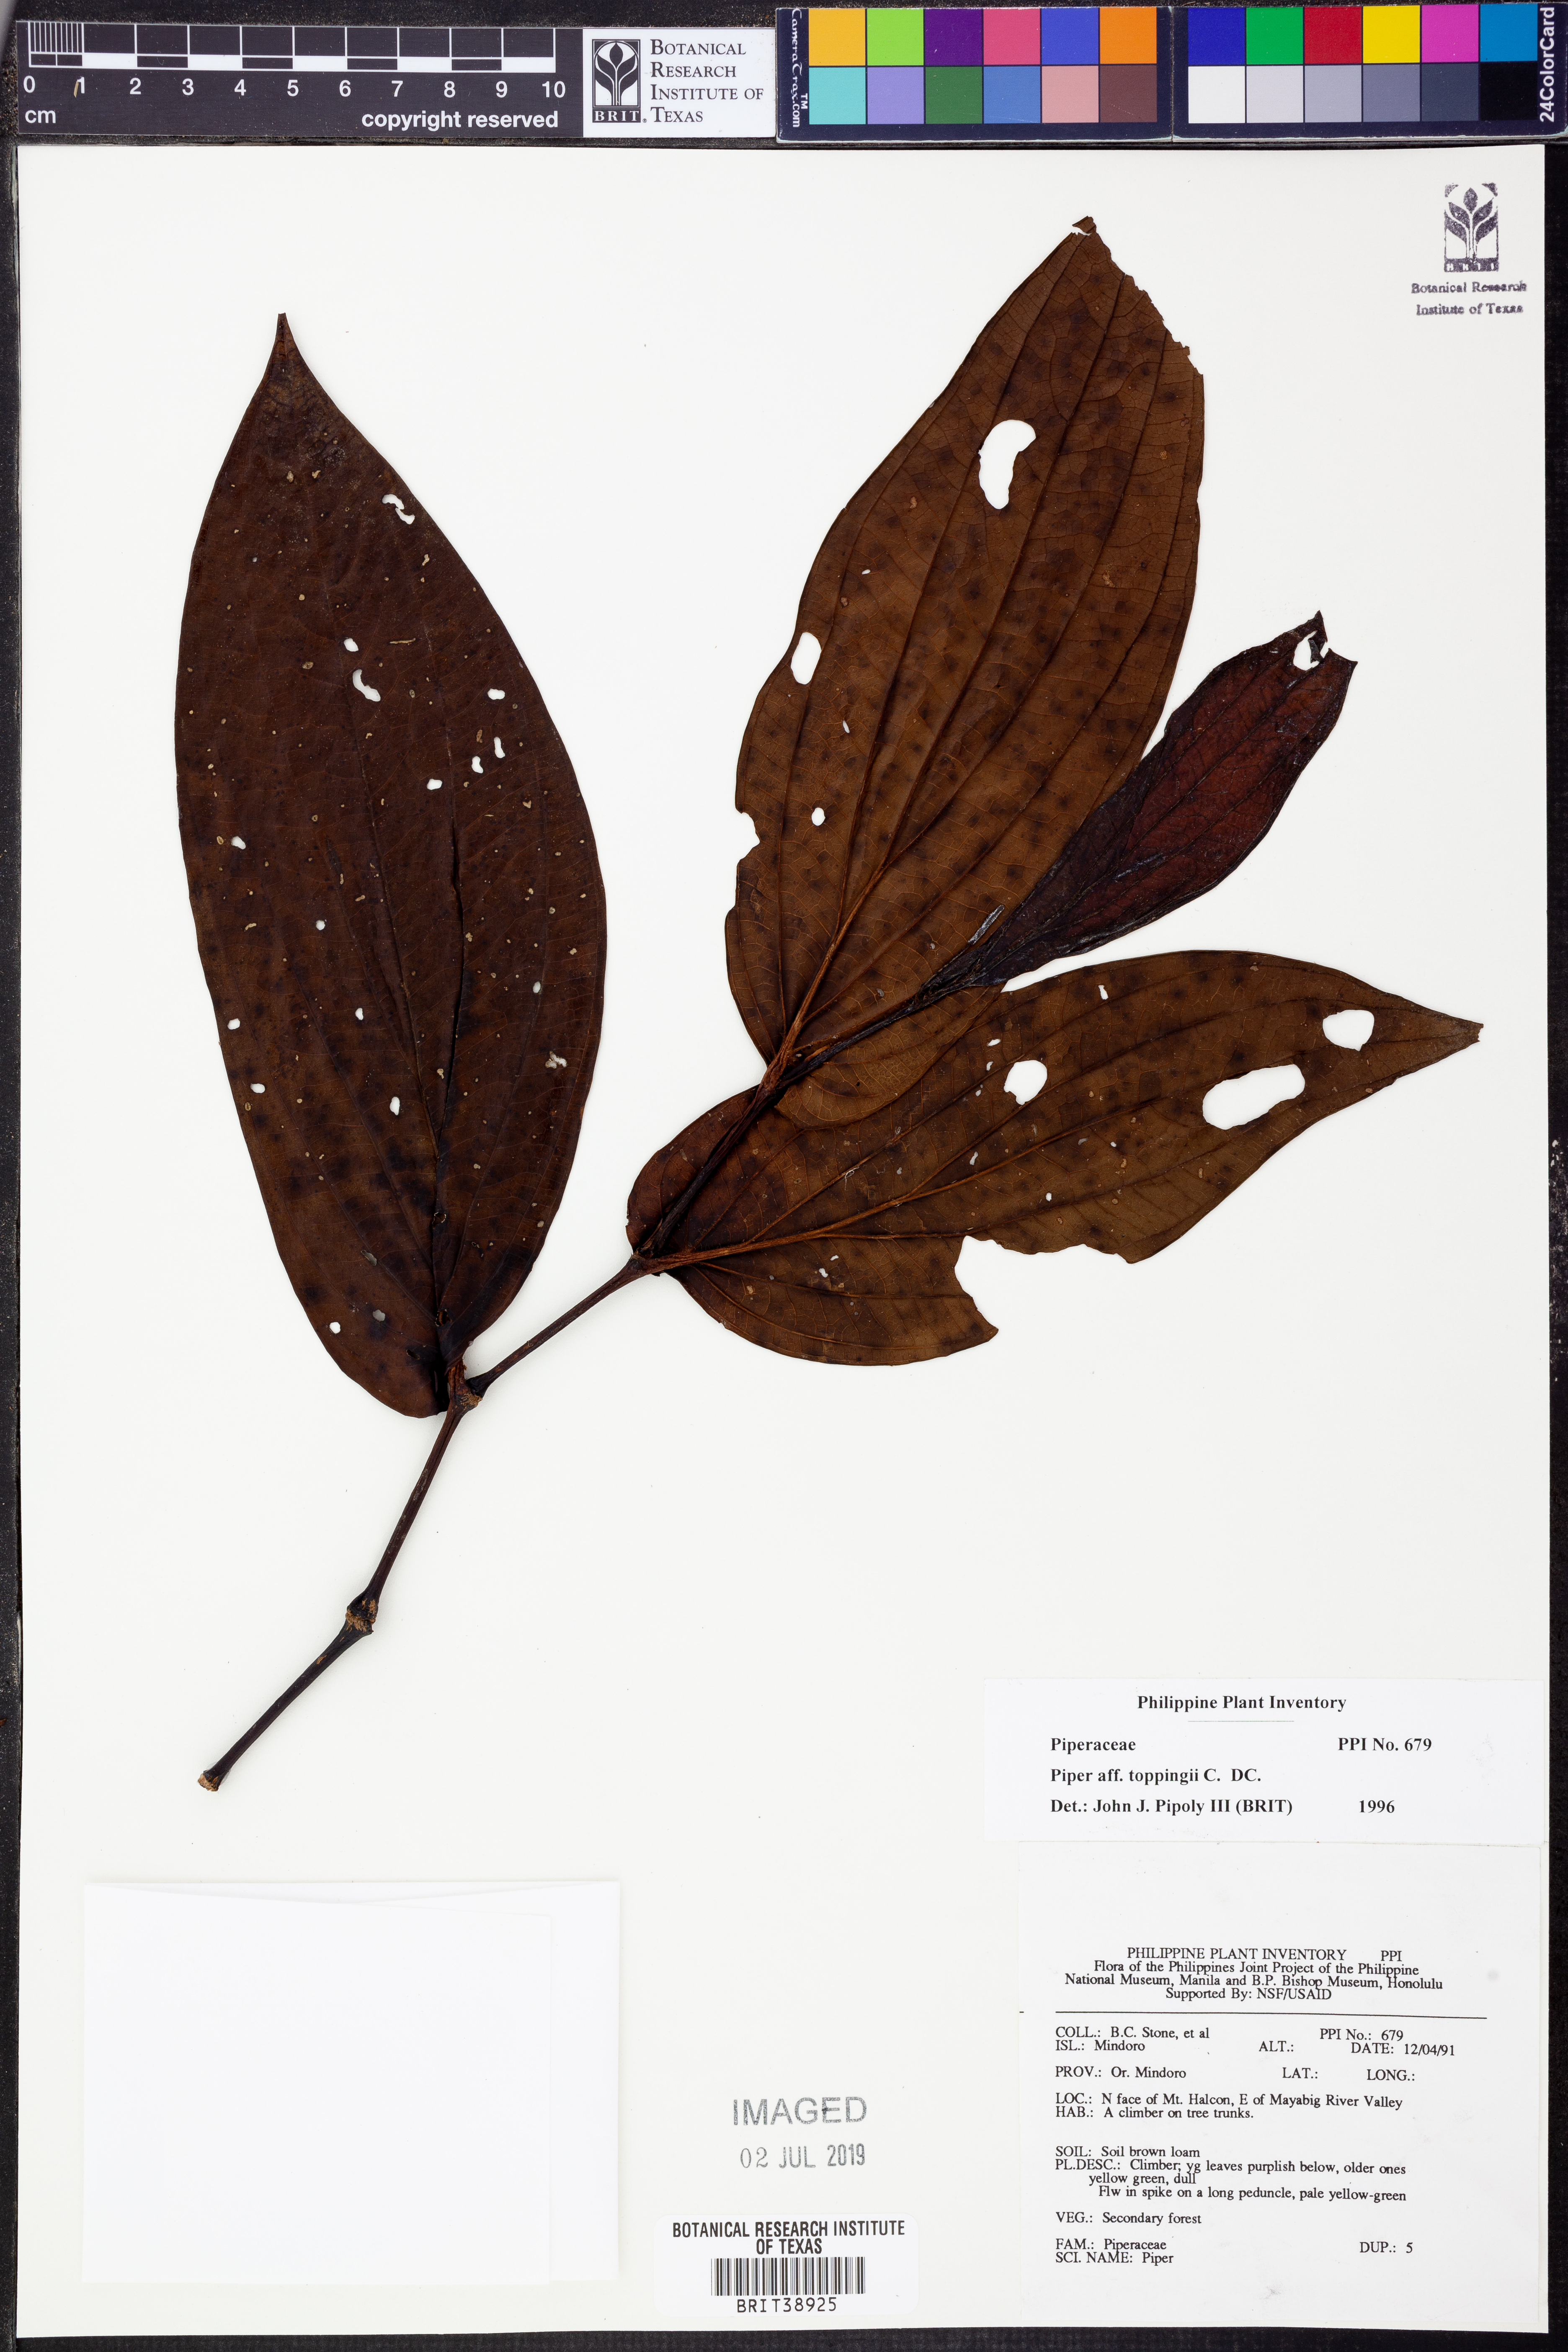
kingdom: Plantae
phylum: Tracheophyta
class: Magnoliopsida
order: Piperales
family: Piperaceae
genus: Piper
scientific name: Piper toppingii
